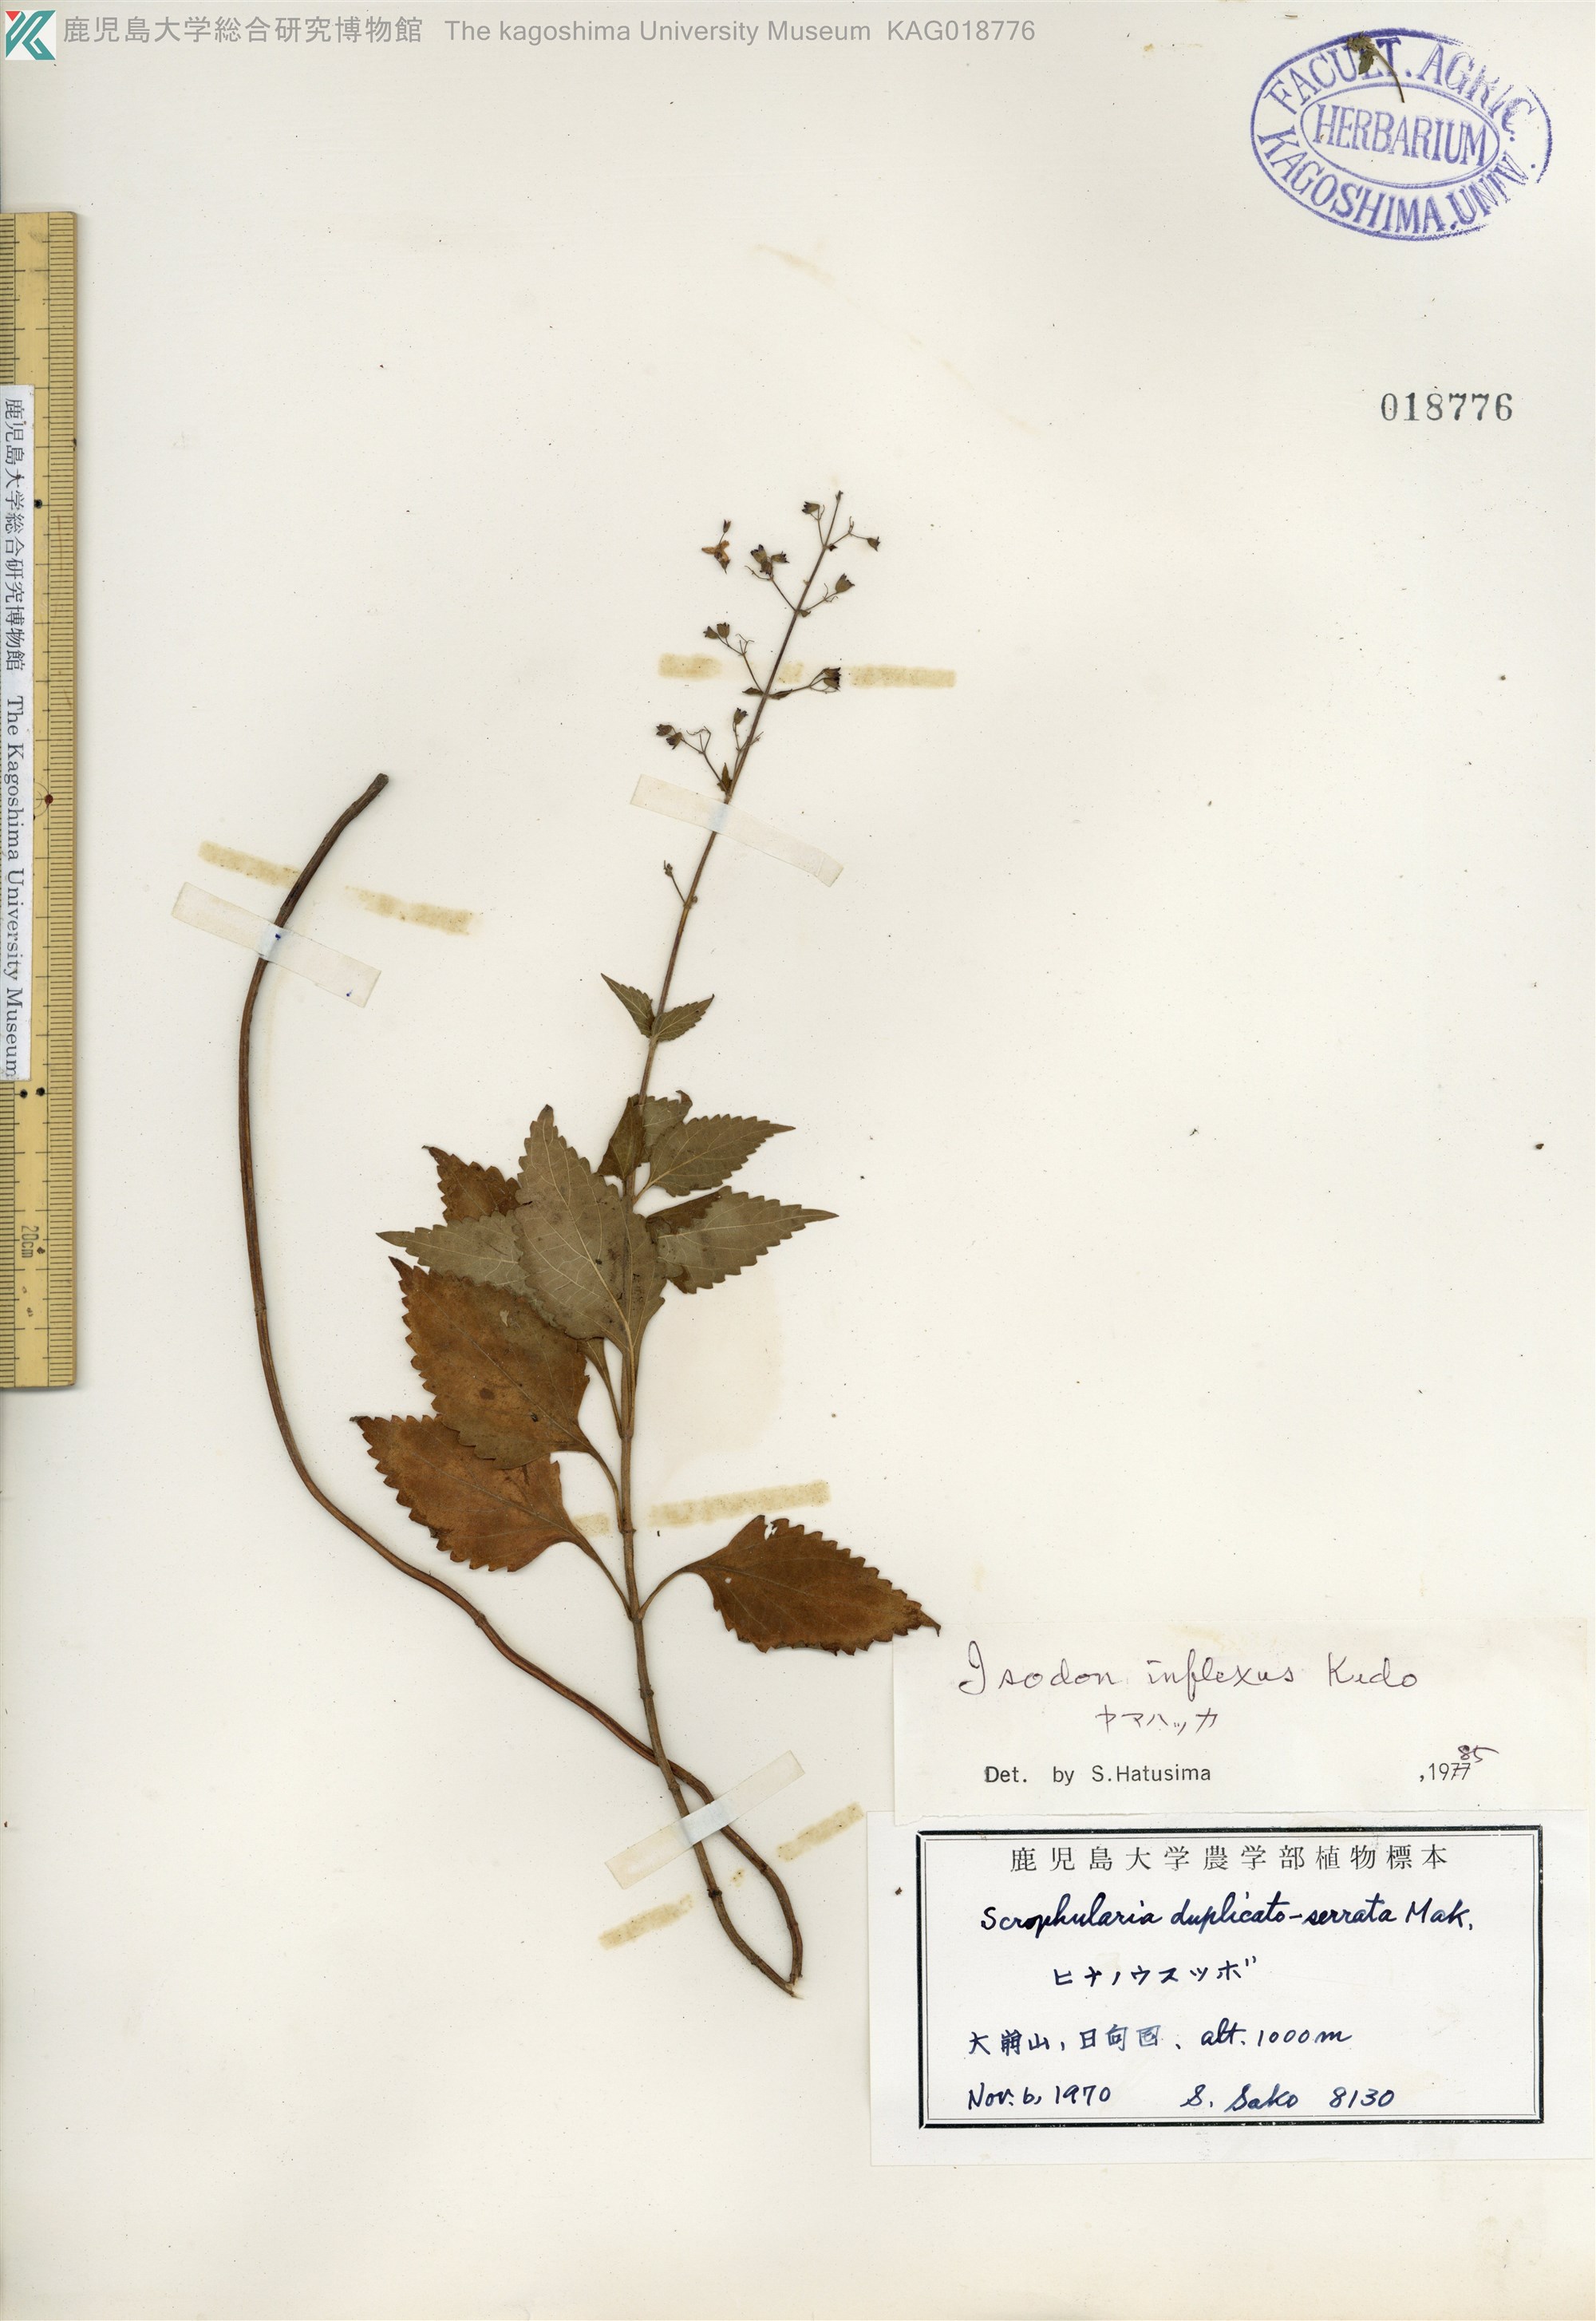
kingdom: Plantae
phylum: Tracheophyta
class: Magnoliopsida
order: Lamiales
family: Lamiaceae
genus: Isodon
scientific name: Isodon inflexus
